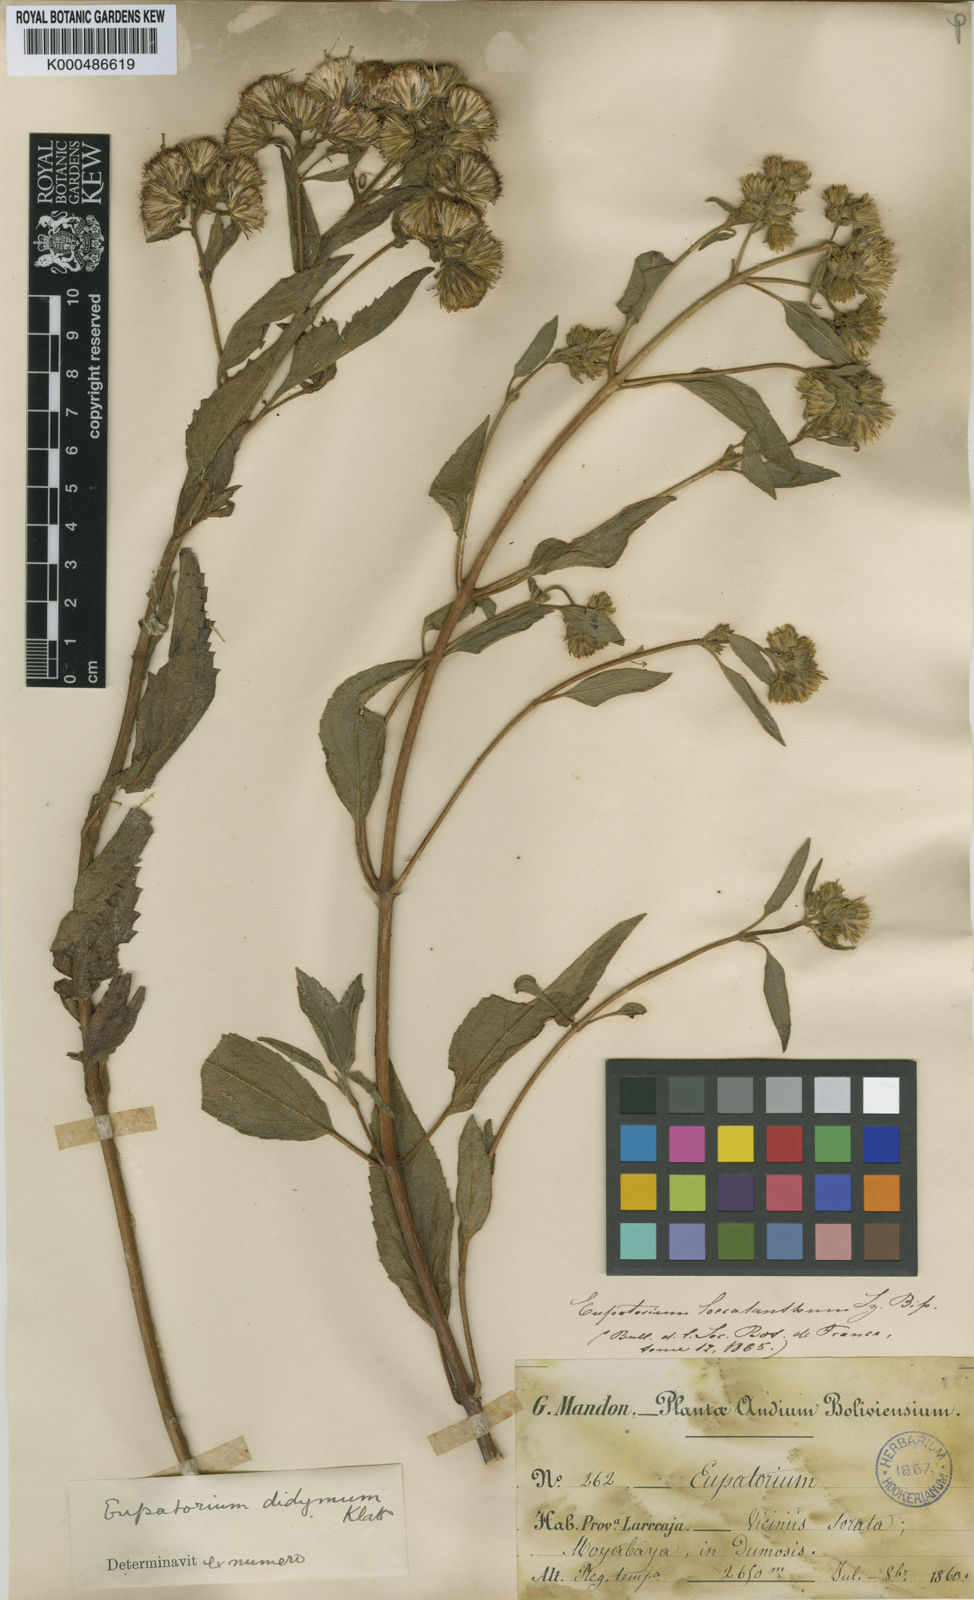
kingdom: Plantae
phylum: Tracheophyta
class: Magnoliopsida
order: Asterales
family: Asteraceae
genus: Heterocondylus
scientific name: Heterocondylus didymus
